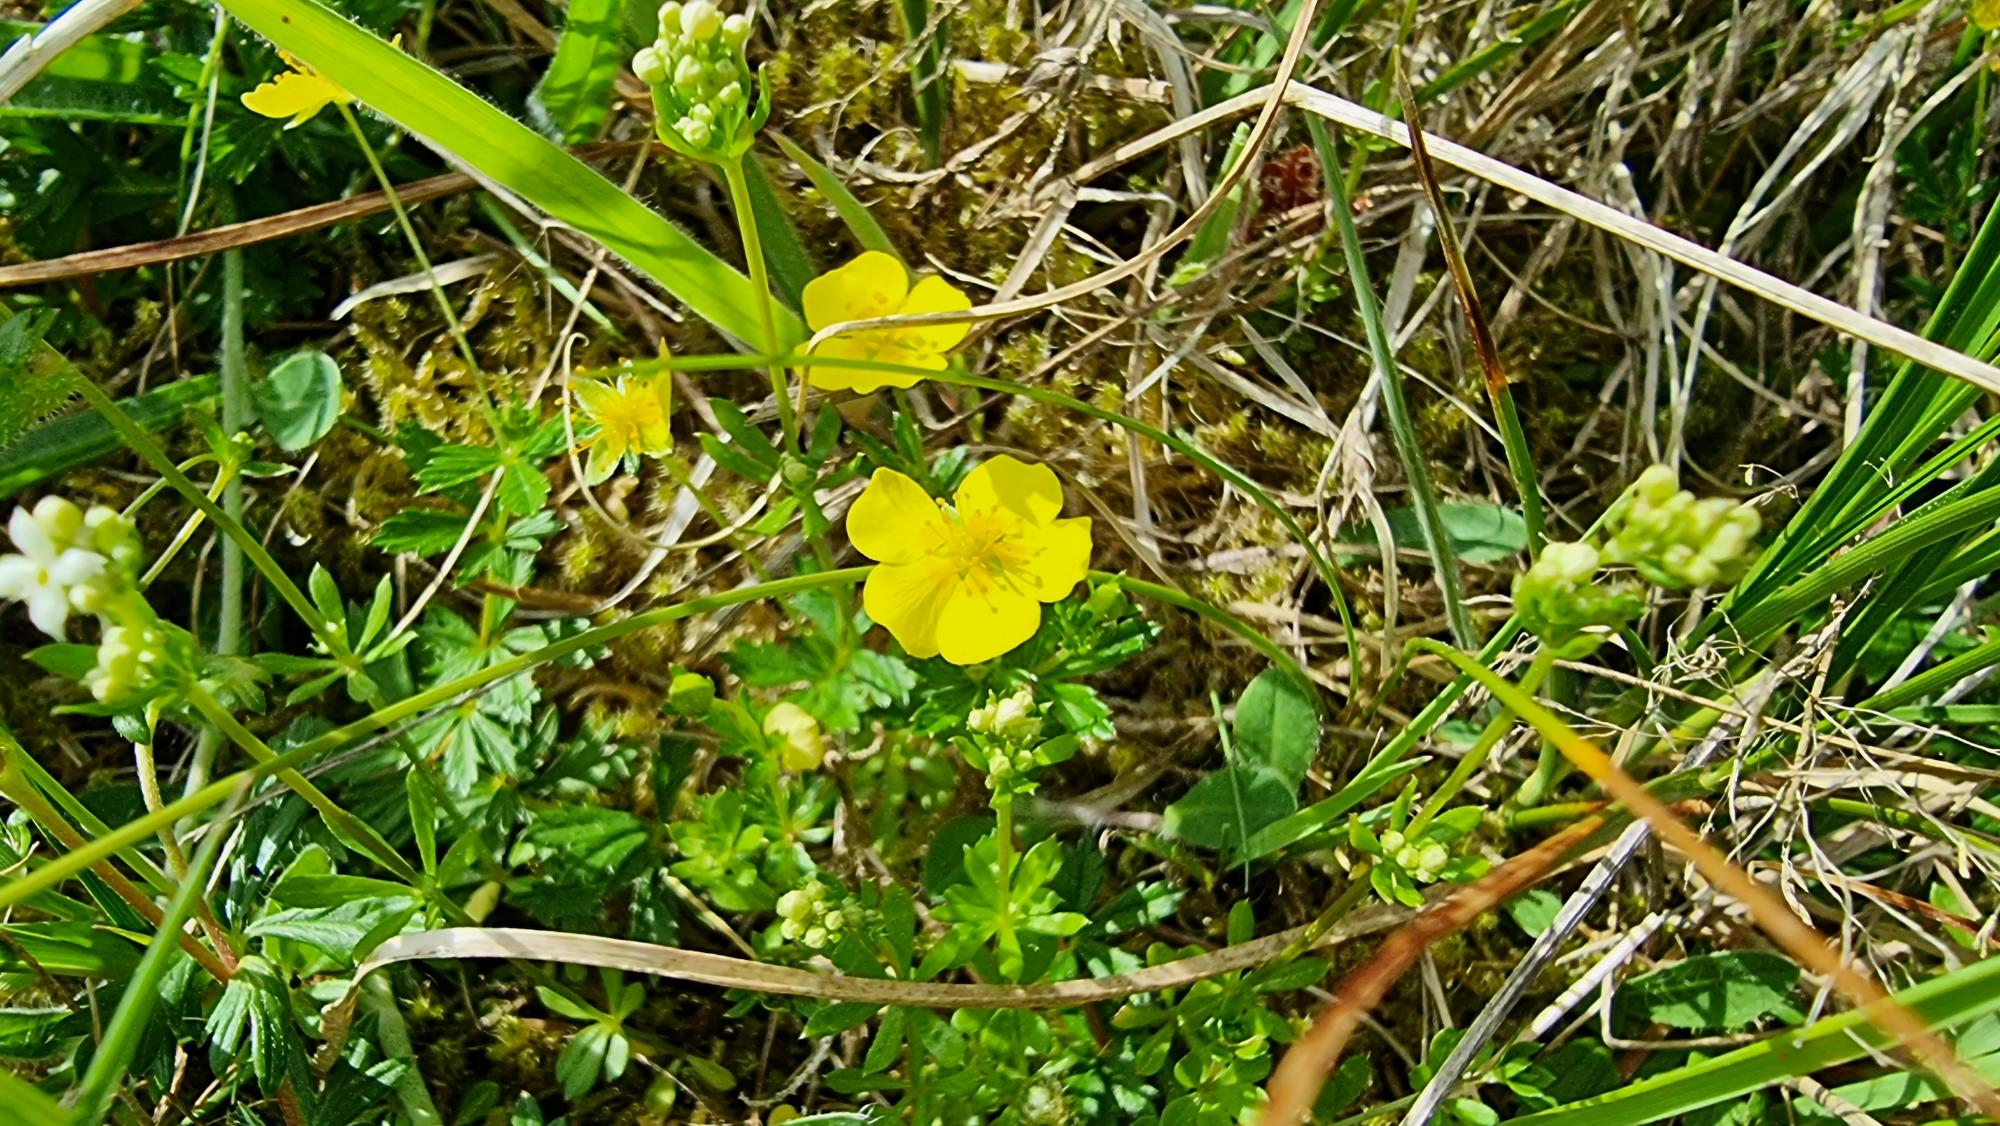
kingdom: Plantae
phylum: Tracheophyta
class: Magnoliopsida
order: Rosales
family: Rosaceae
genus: Potentilla
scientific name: Potentilla erecta
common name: Tormentil
